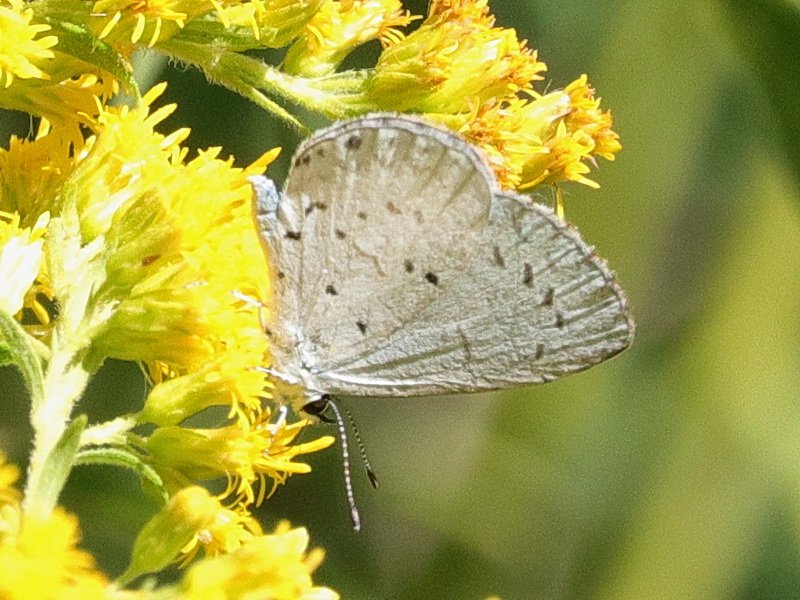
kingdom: Animalia
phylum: Arthropoda
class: Insecta
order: Lepidoptera
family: Lycaenidae
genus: Celastrina
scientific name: Celastrina lucia
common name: Northern Spring Azure
